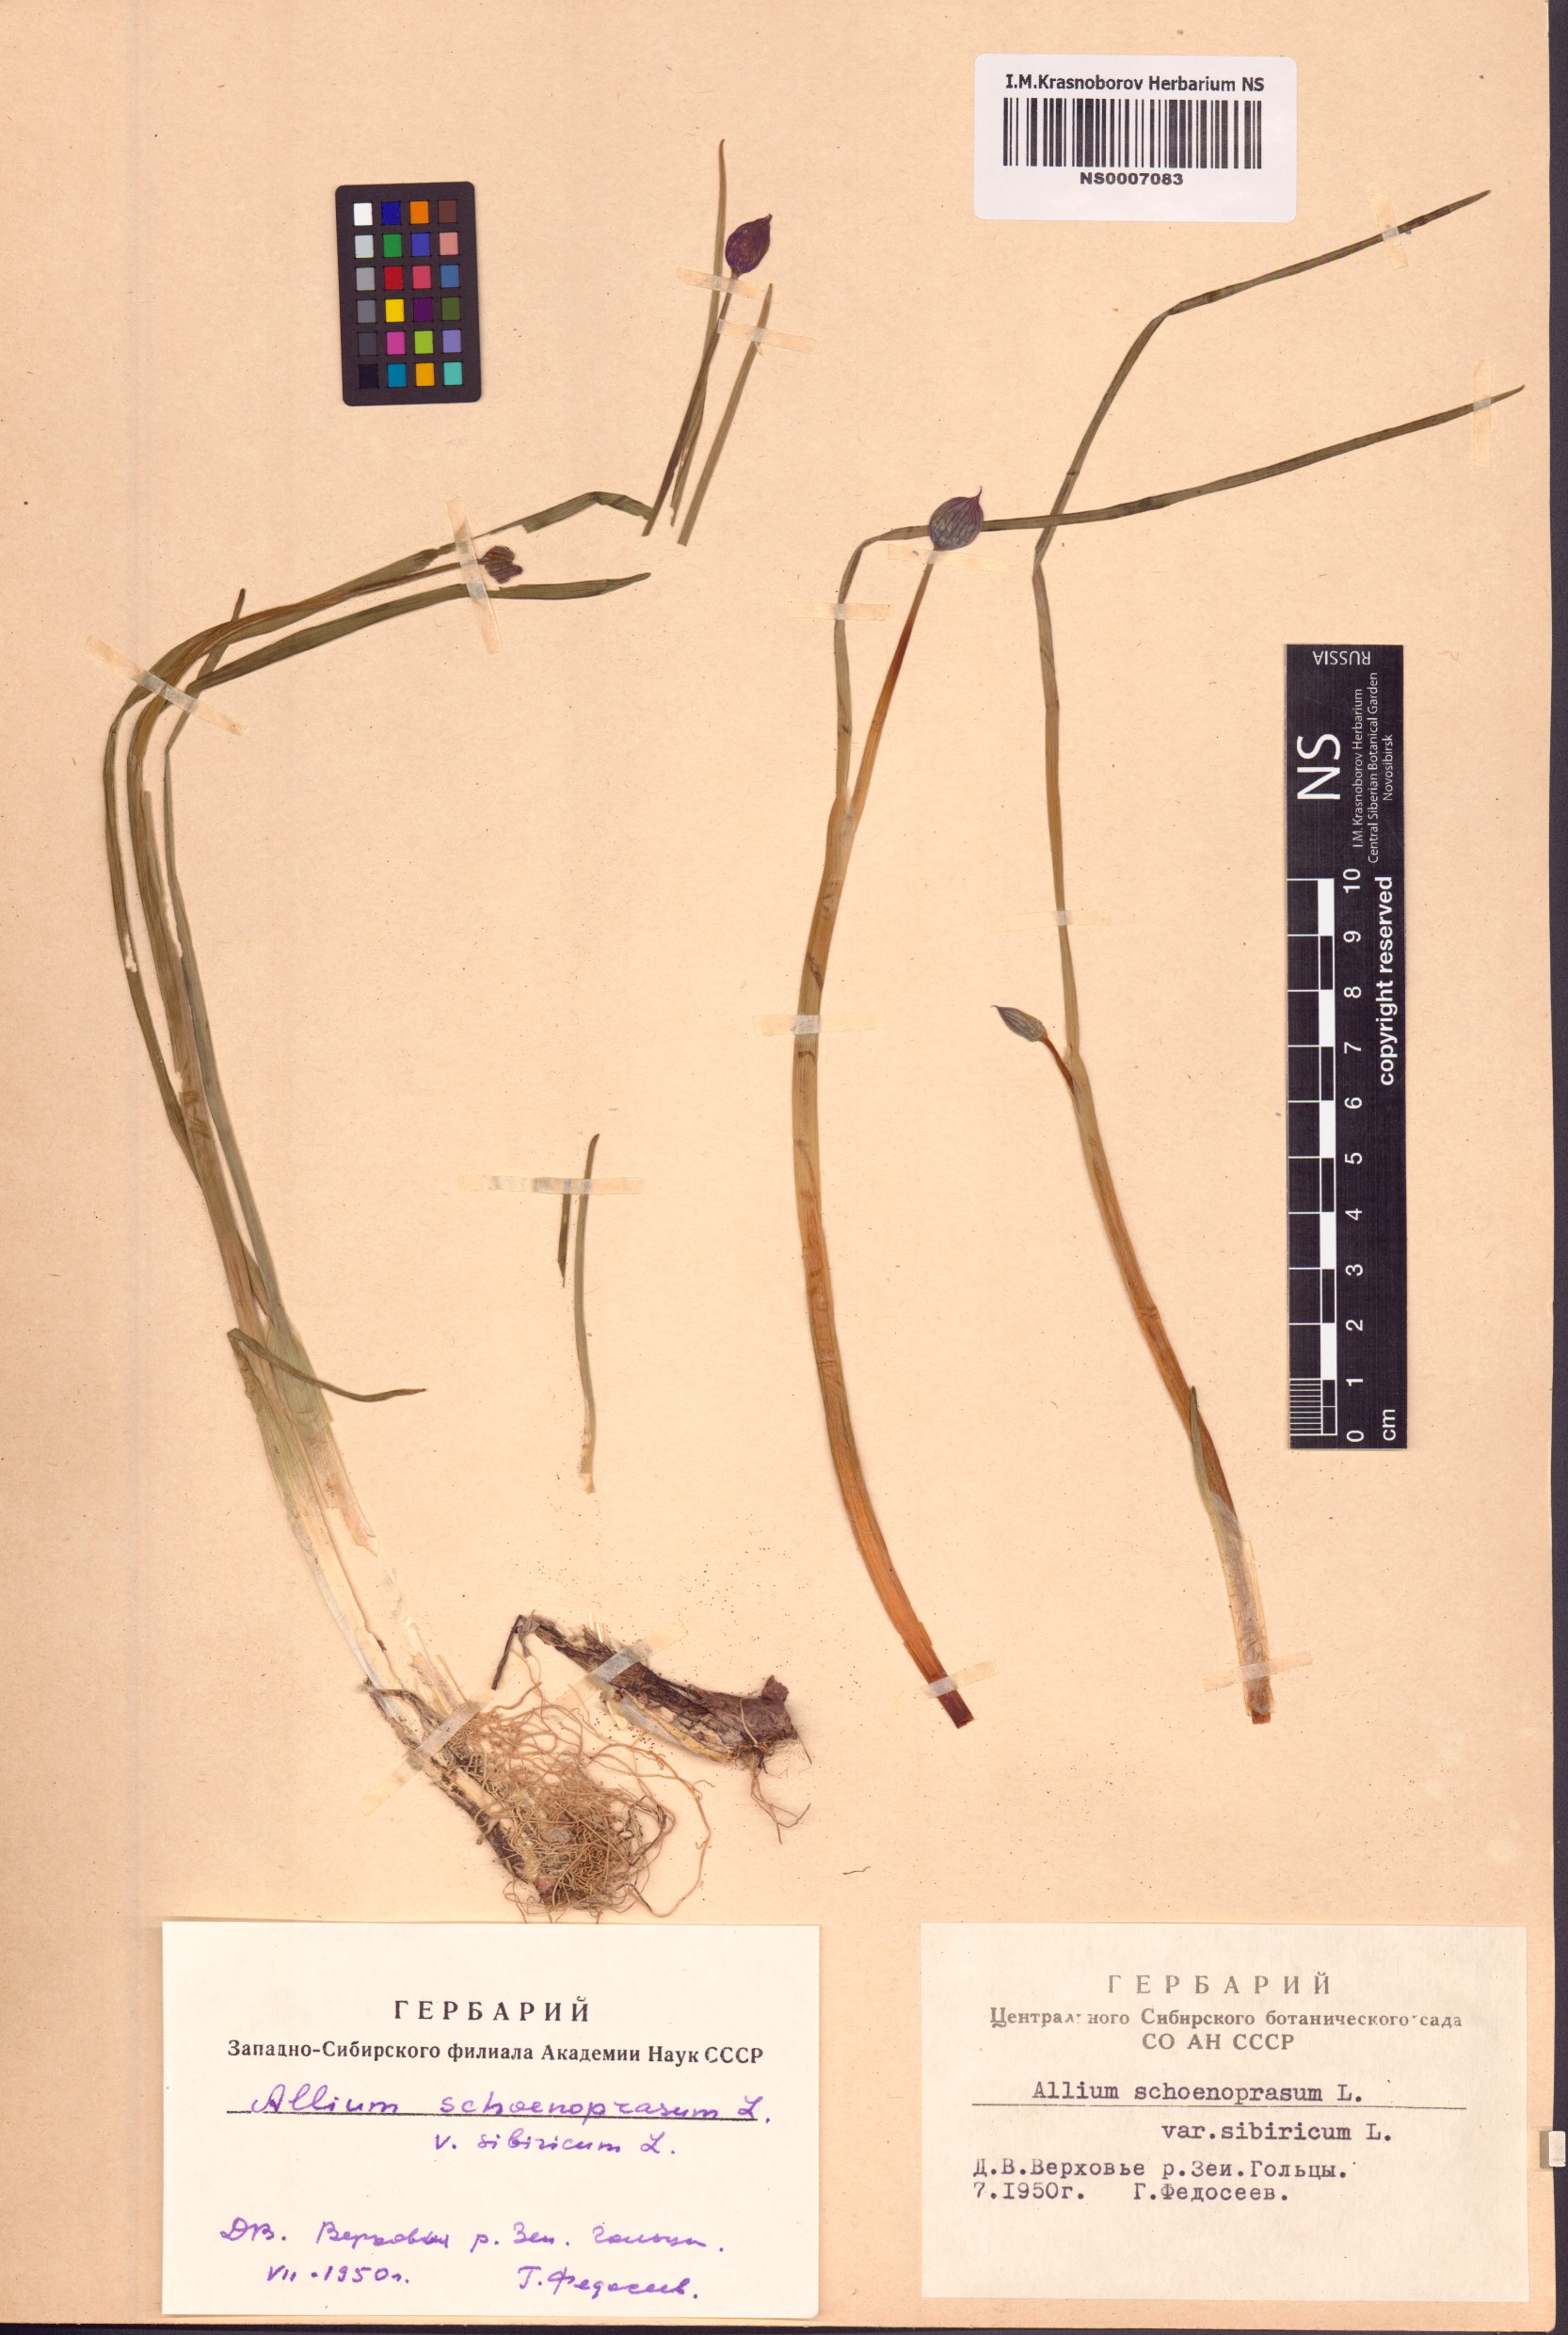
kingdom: Plantae
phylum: Tracheophyta
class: Liliopsida
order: Asparagales
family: Amaryllidaceae
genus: Allium
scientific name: Allium schoenoprasum
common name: Chives
